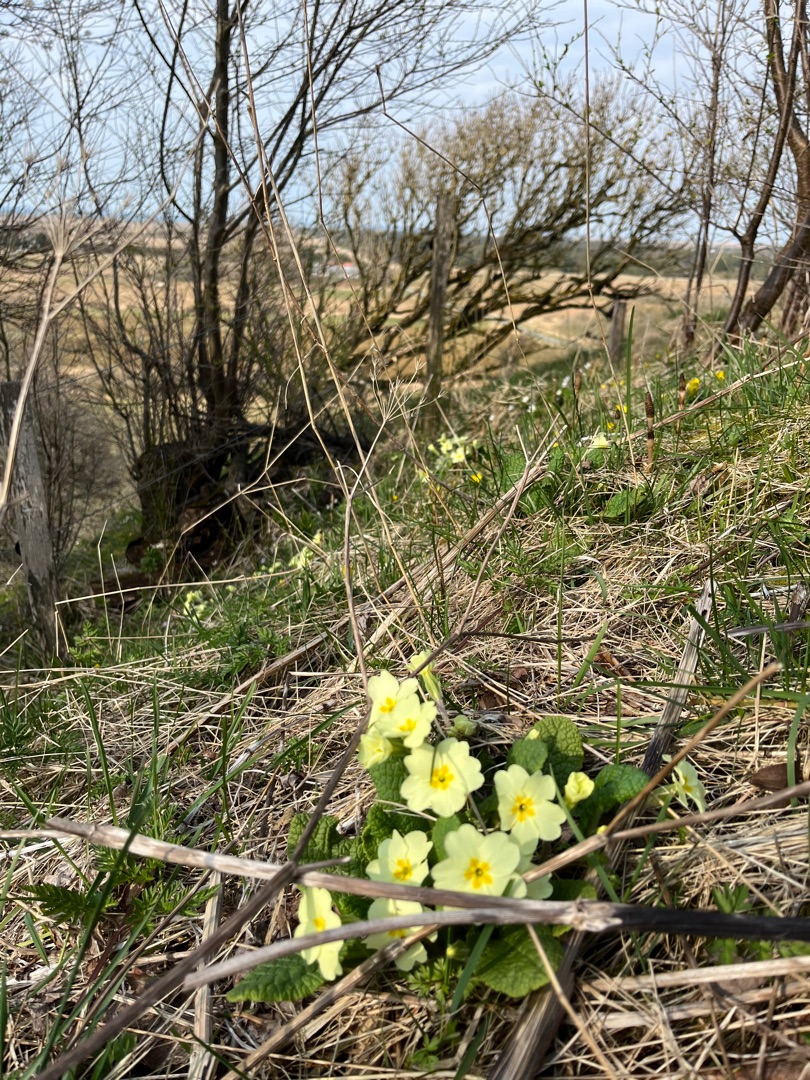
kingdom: Plantae
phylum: Tracheophyta
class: Magnoliopsida
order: Ericales
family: Primulaceae
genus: Primula
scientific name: Primula vulgaris
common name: Storblomstret kodriver
